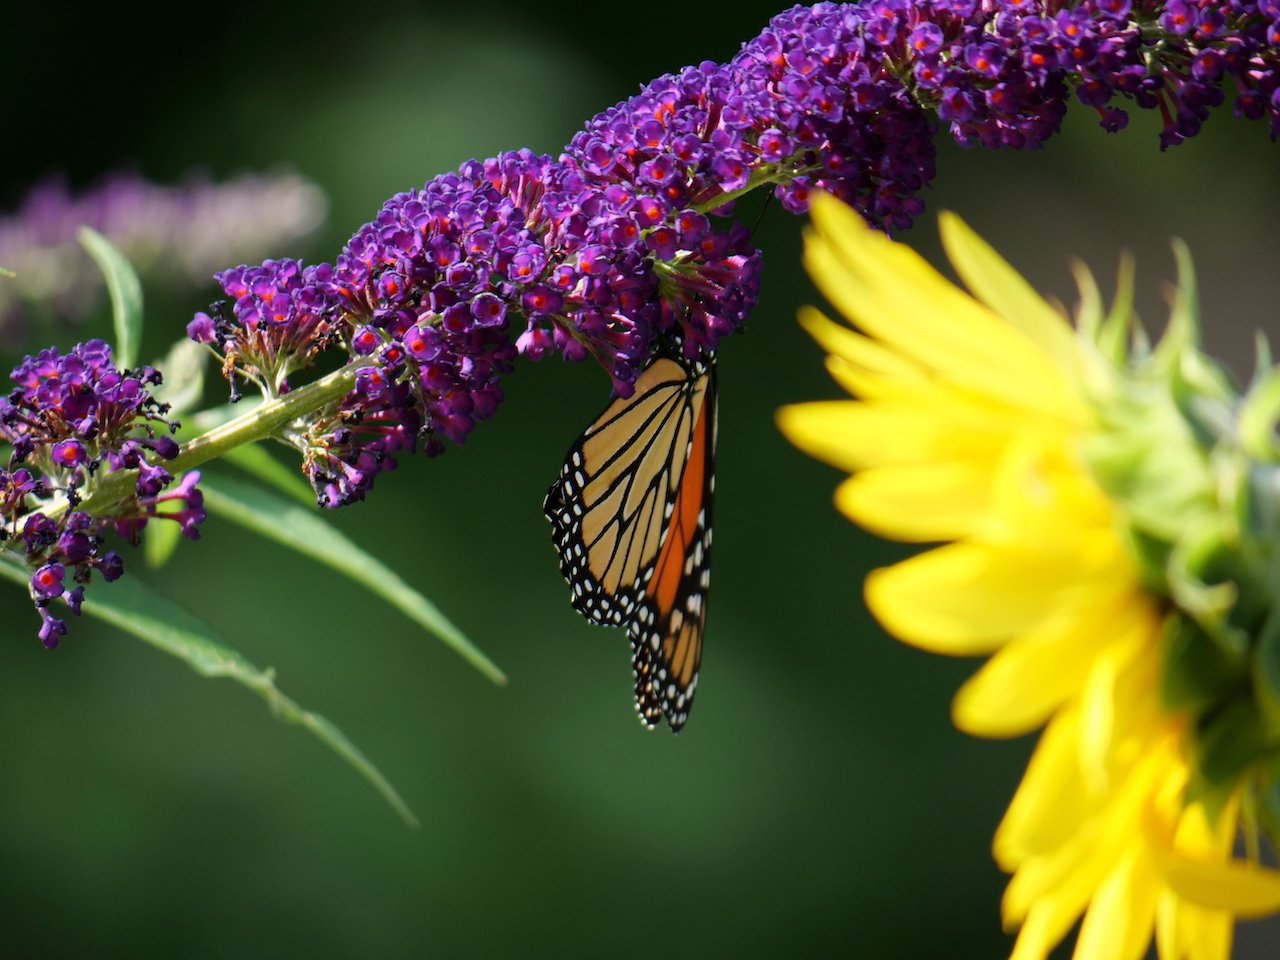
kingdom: Animalia
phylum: Arthropoda
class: Insecta
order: Lepidoptera
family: Nymphalidae
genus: Danaus
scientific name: Danaus plexippus
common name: Monarch
